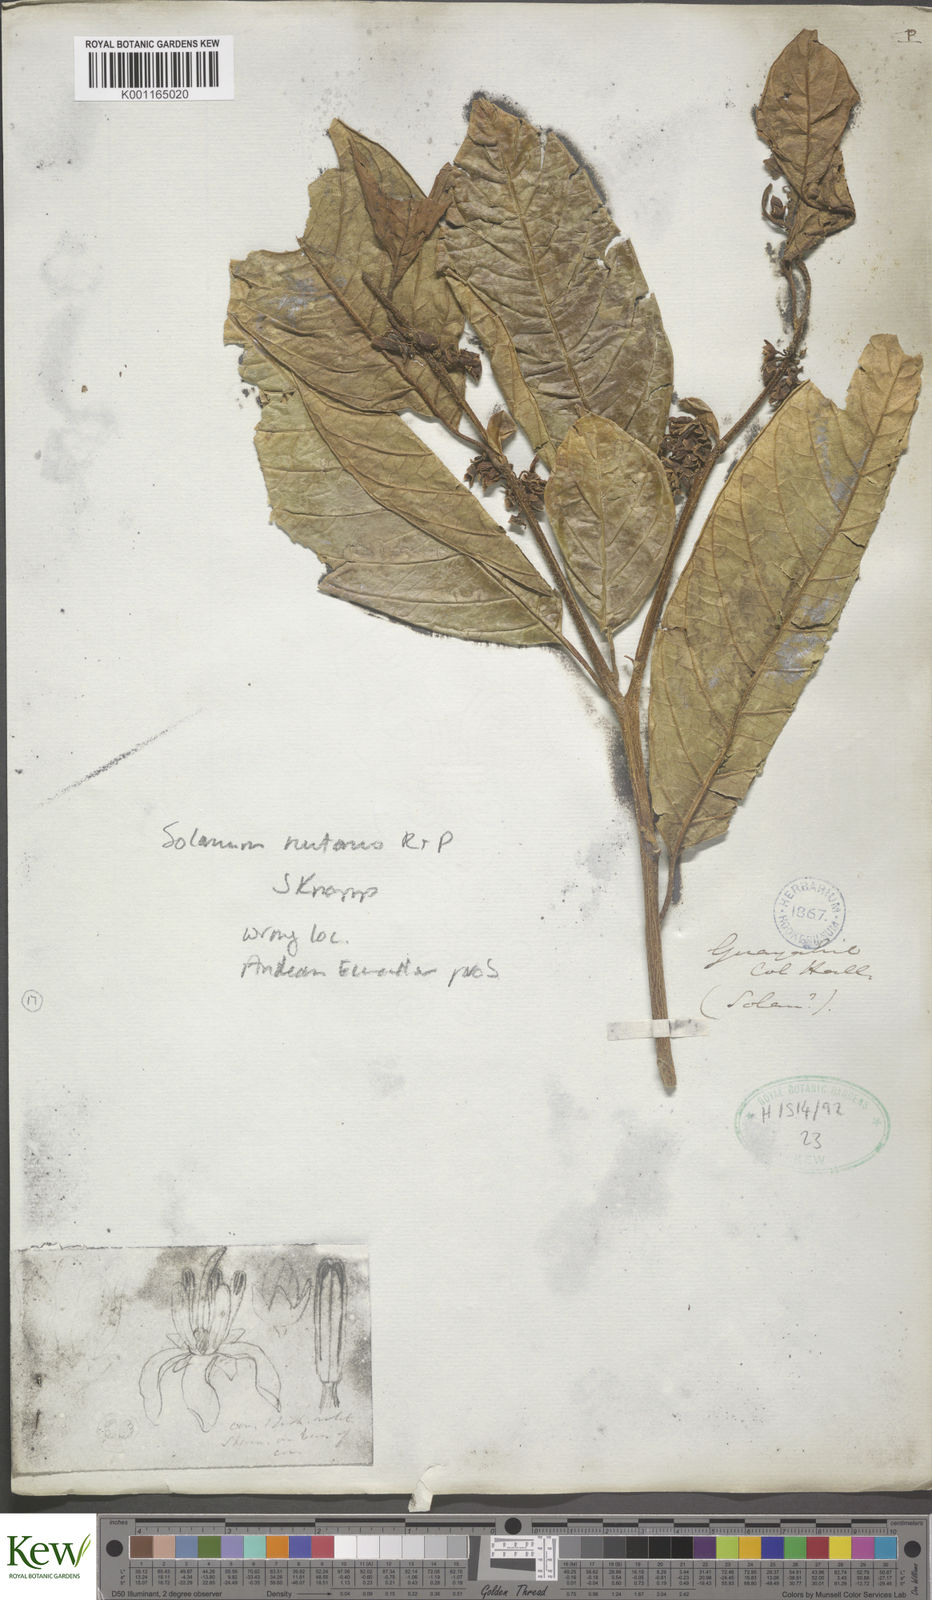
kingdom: Plantae
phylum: Tracheophyta
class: Magnoliopsida
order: Solanales
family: Solanaceae
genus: Solanum
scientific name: Solanum nutans
